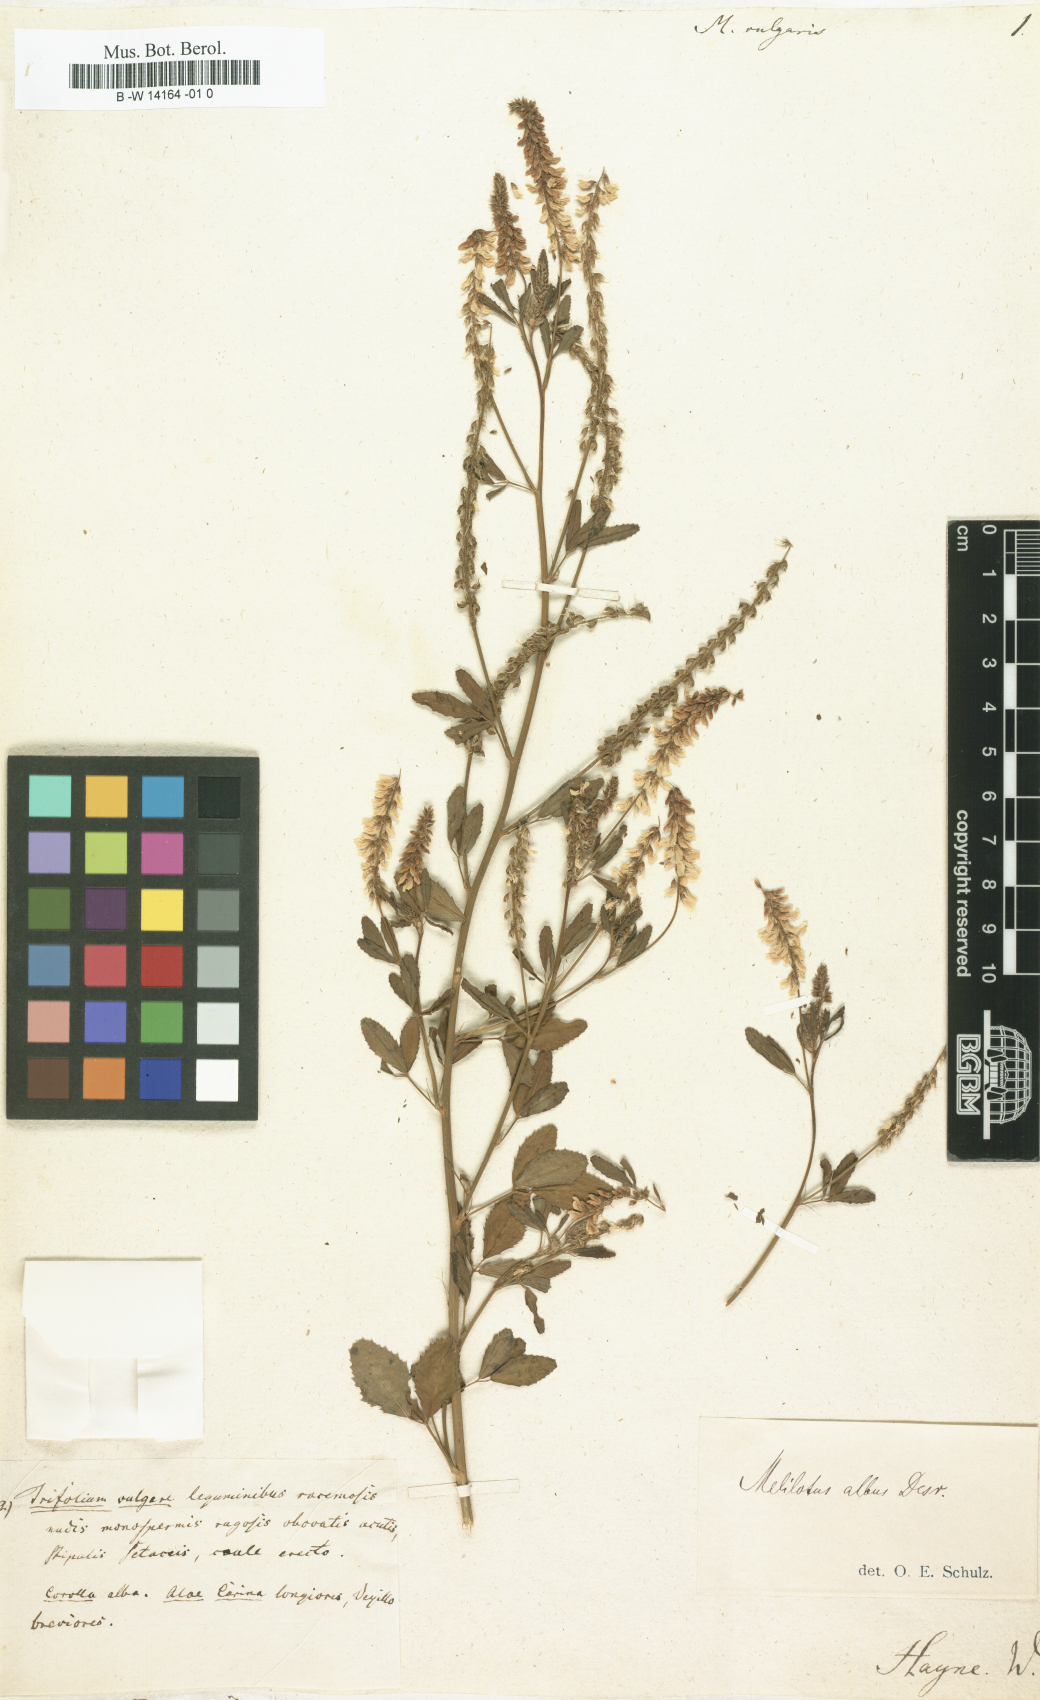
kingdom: Plantae
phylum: Tracheophyta
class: Magnoliopsida
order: Fabales
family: Fabaceae
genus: Melilotus
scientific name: Melilotus
